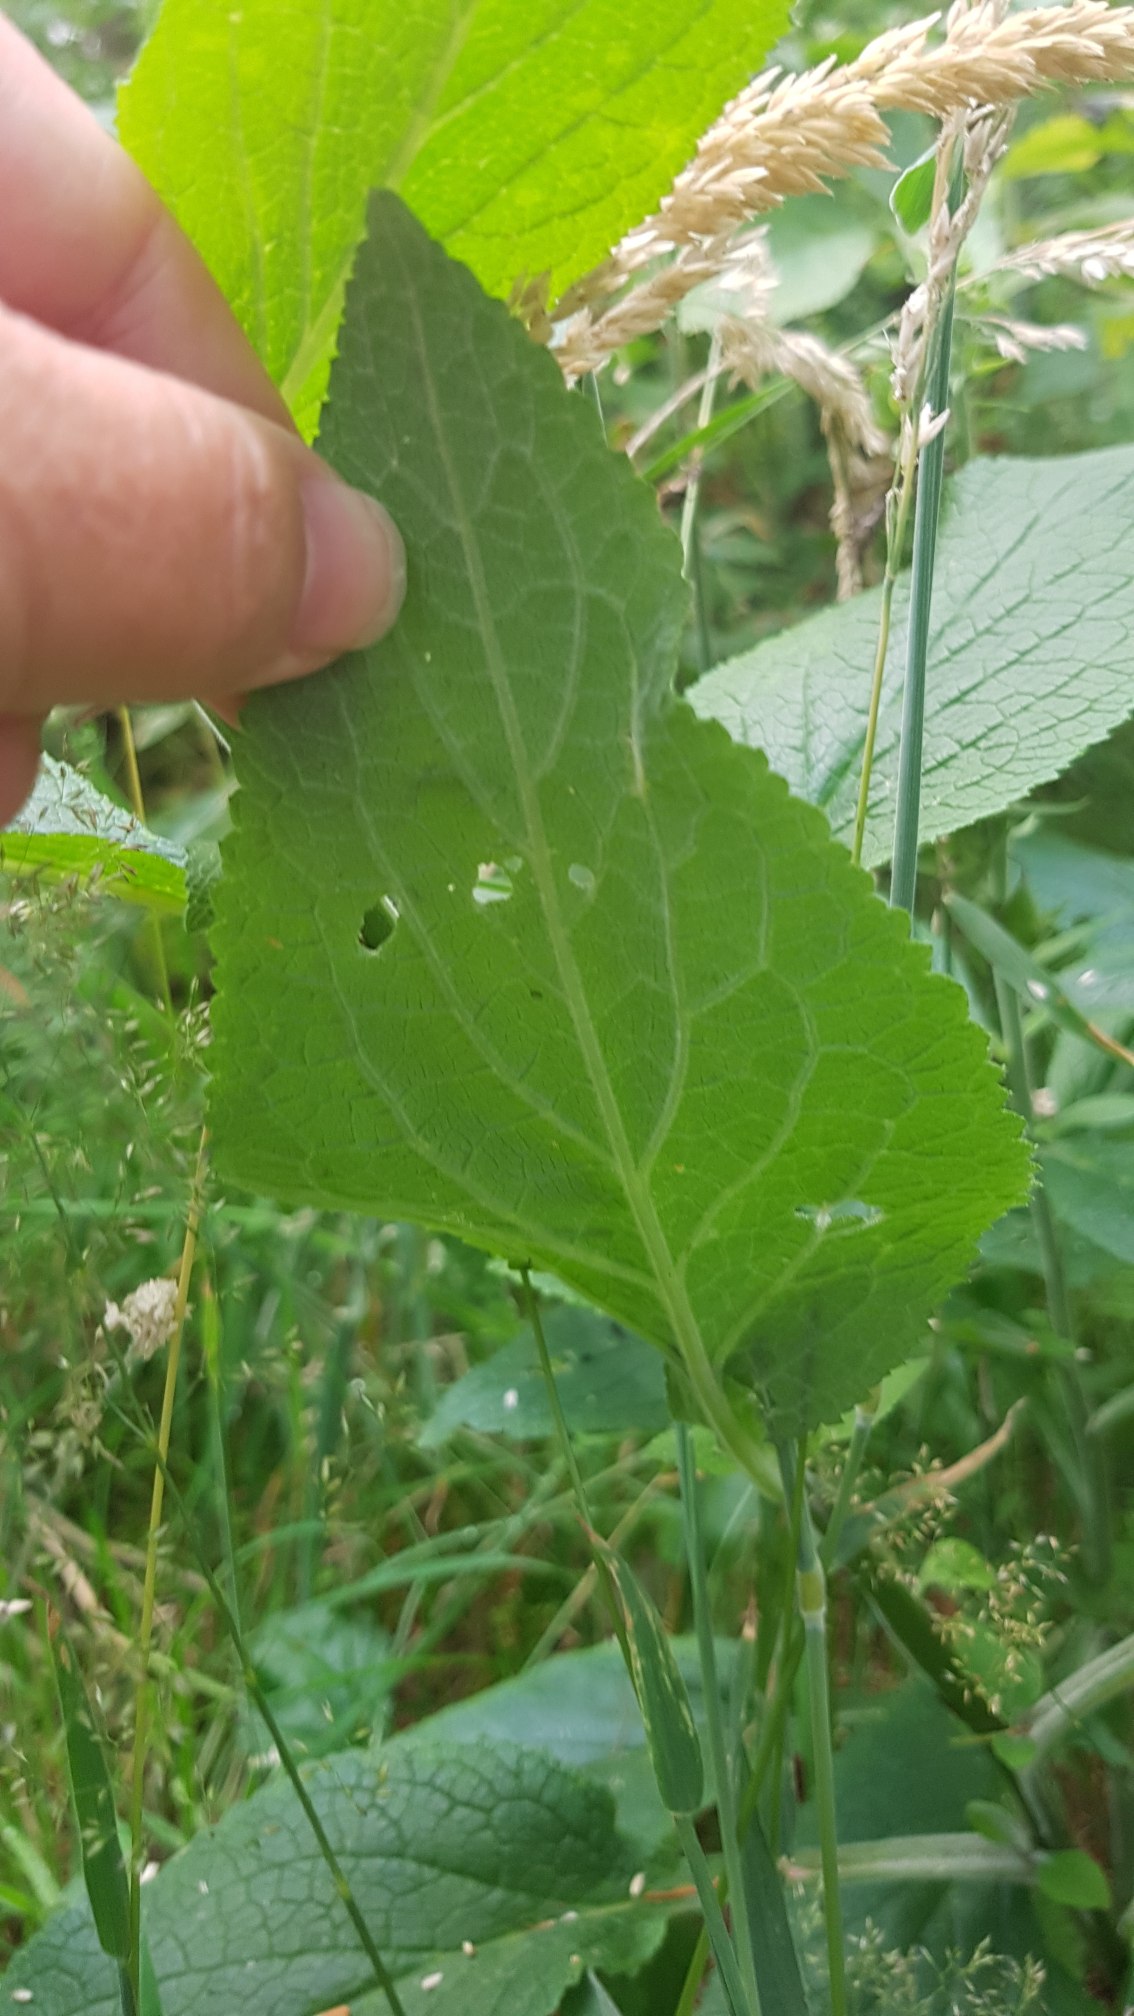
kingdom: Plantae
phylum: Tracheophyta
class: Magnoliopsida
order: Lamiales
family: Plantaginaceae
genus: Digitalis
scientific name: Digitalis purpurea
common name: Almindelig fingerbøl
